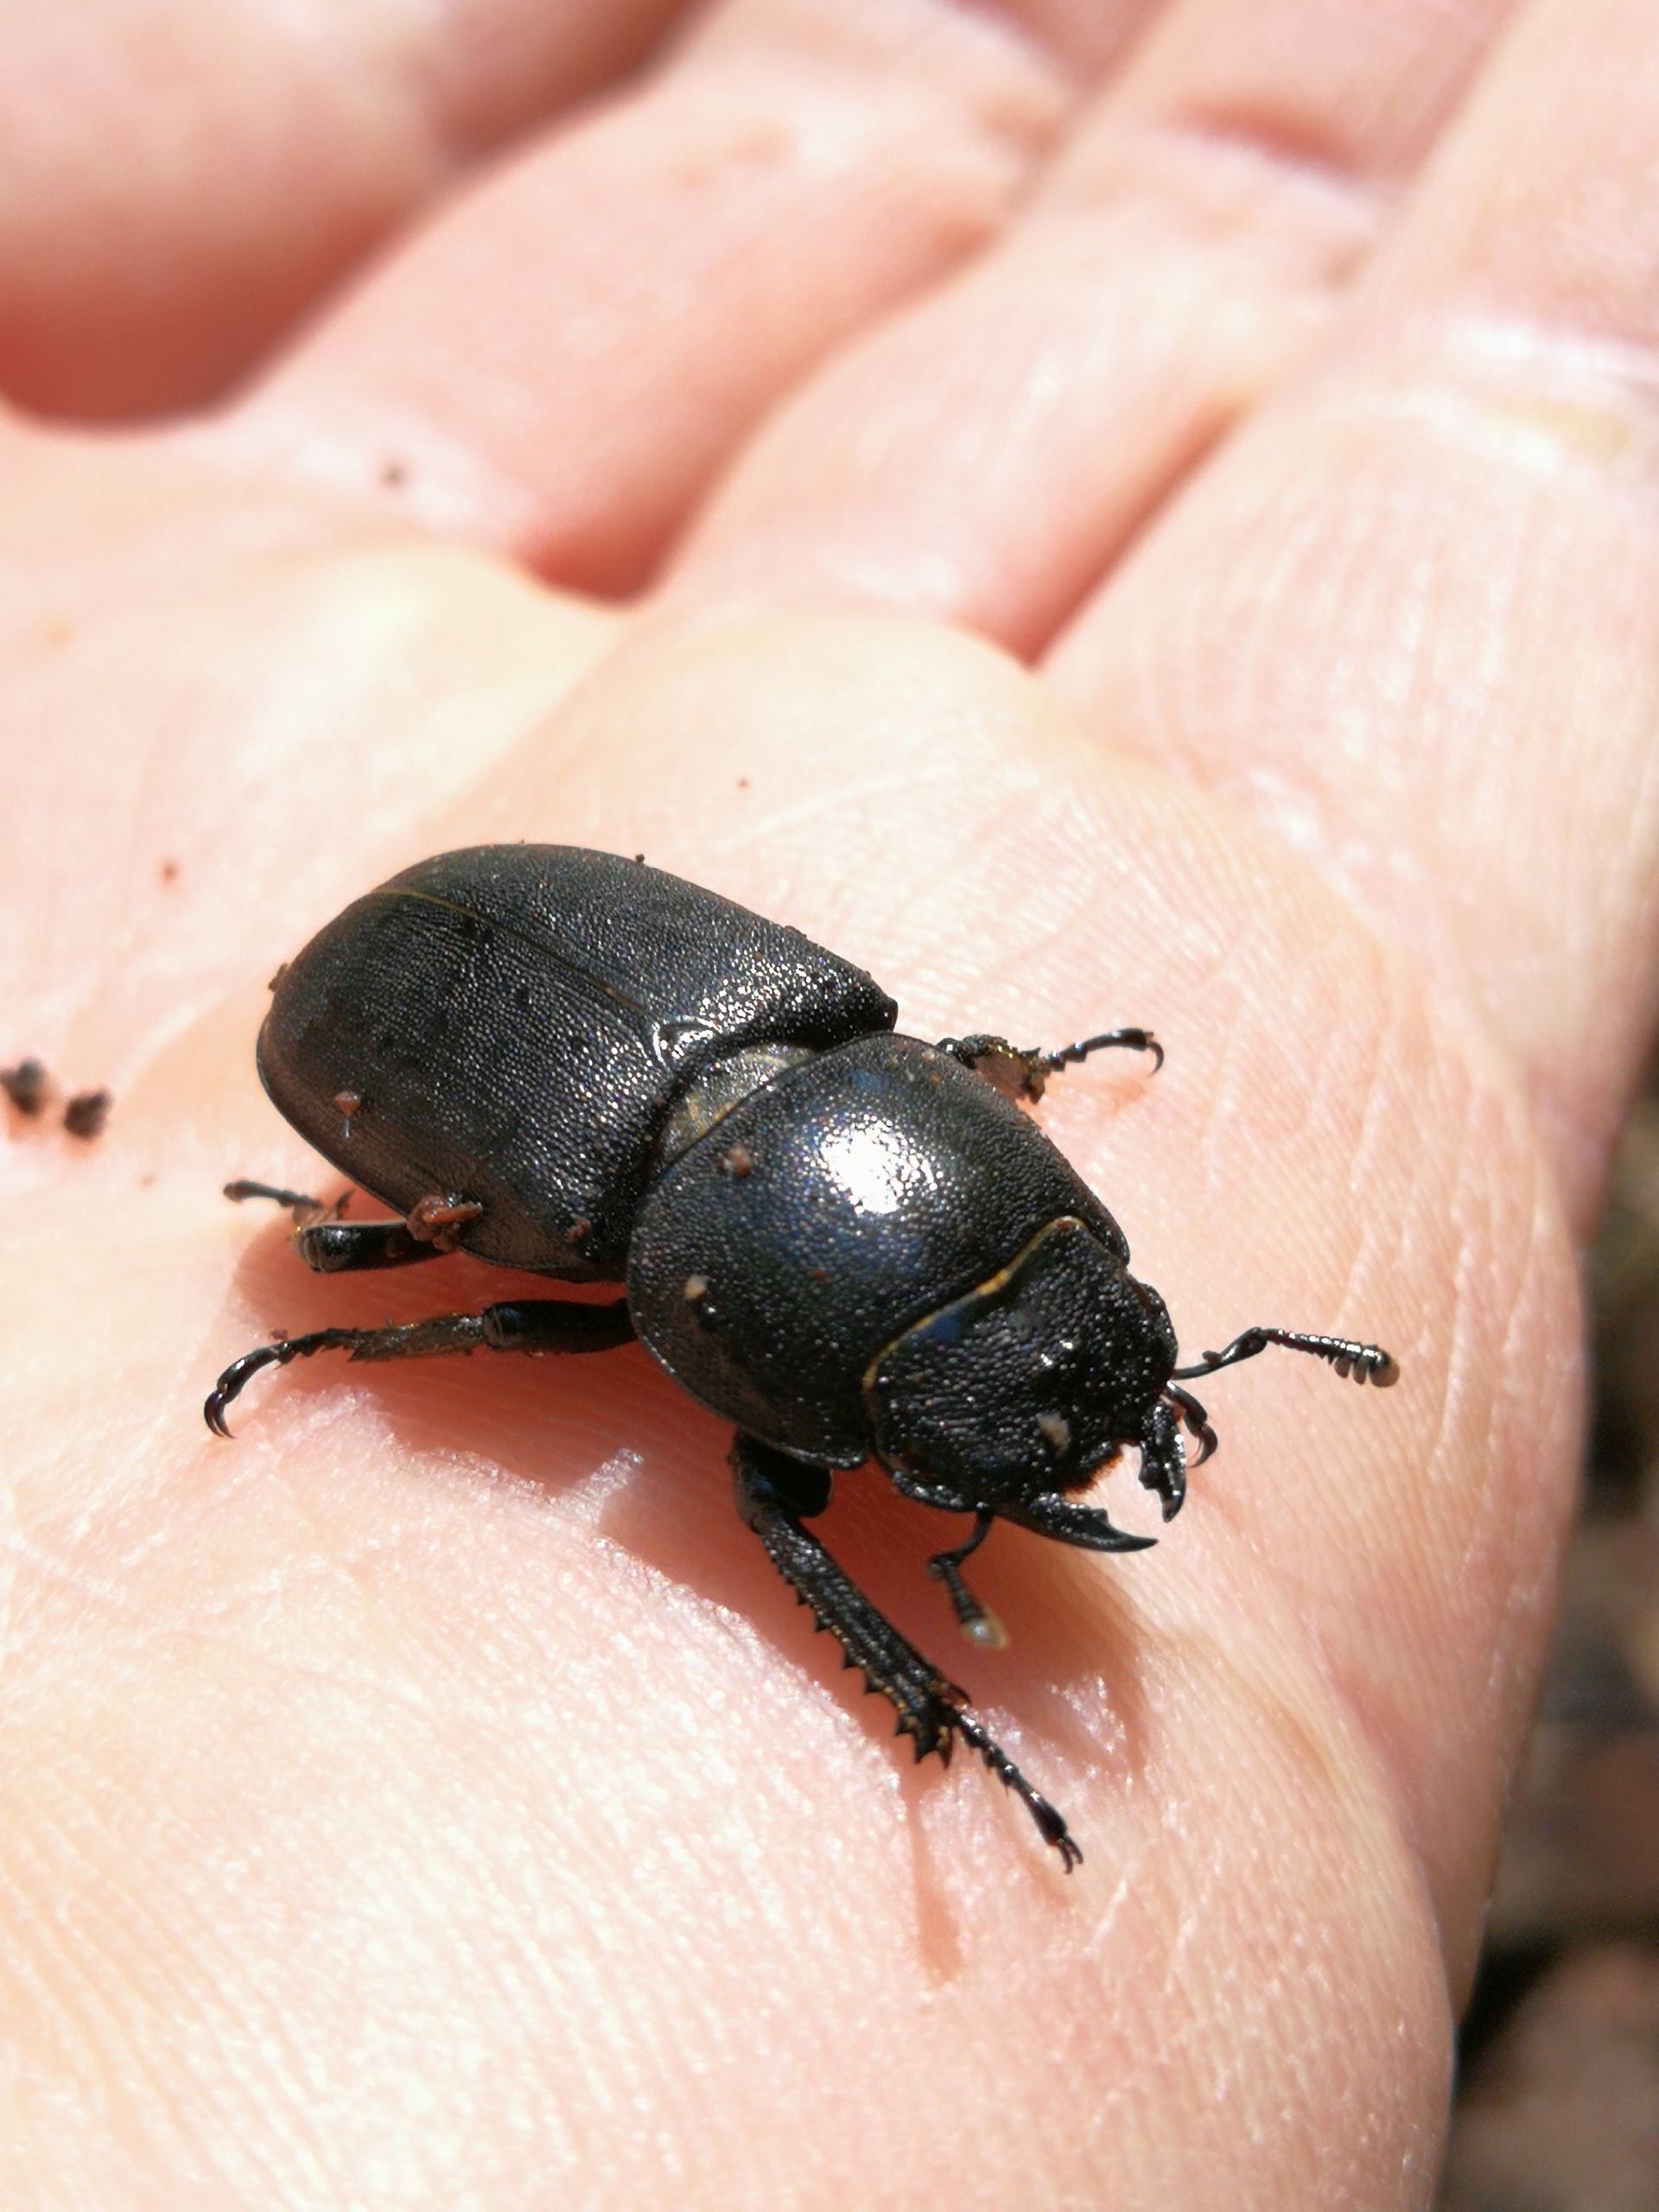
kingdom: Animalia
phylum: Arthropoda
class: Insecta
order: Coleoptera
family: Lucanidae
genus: Dorcus
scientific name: Dorcus parallelipipedus
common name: Bøghjort
